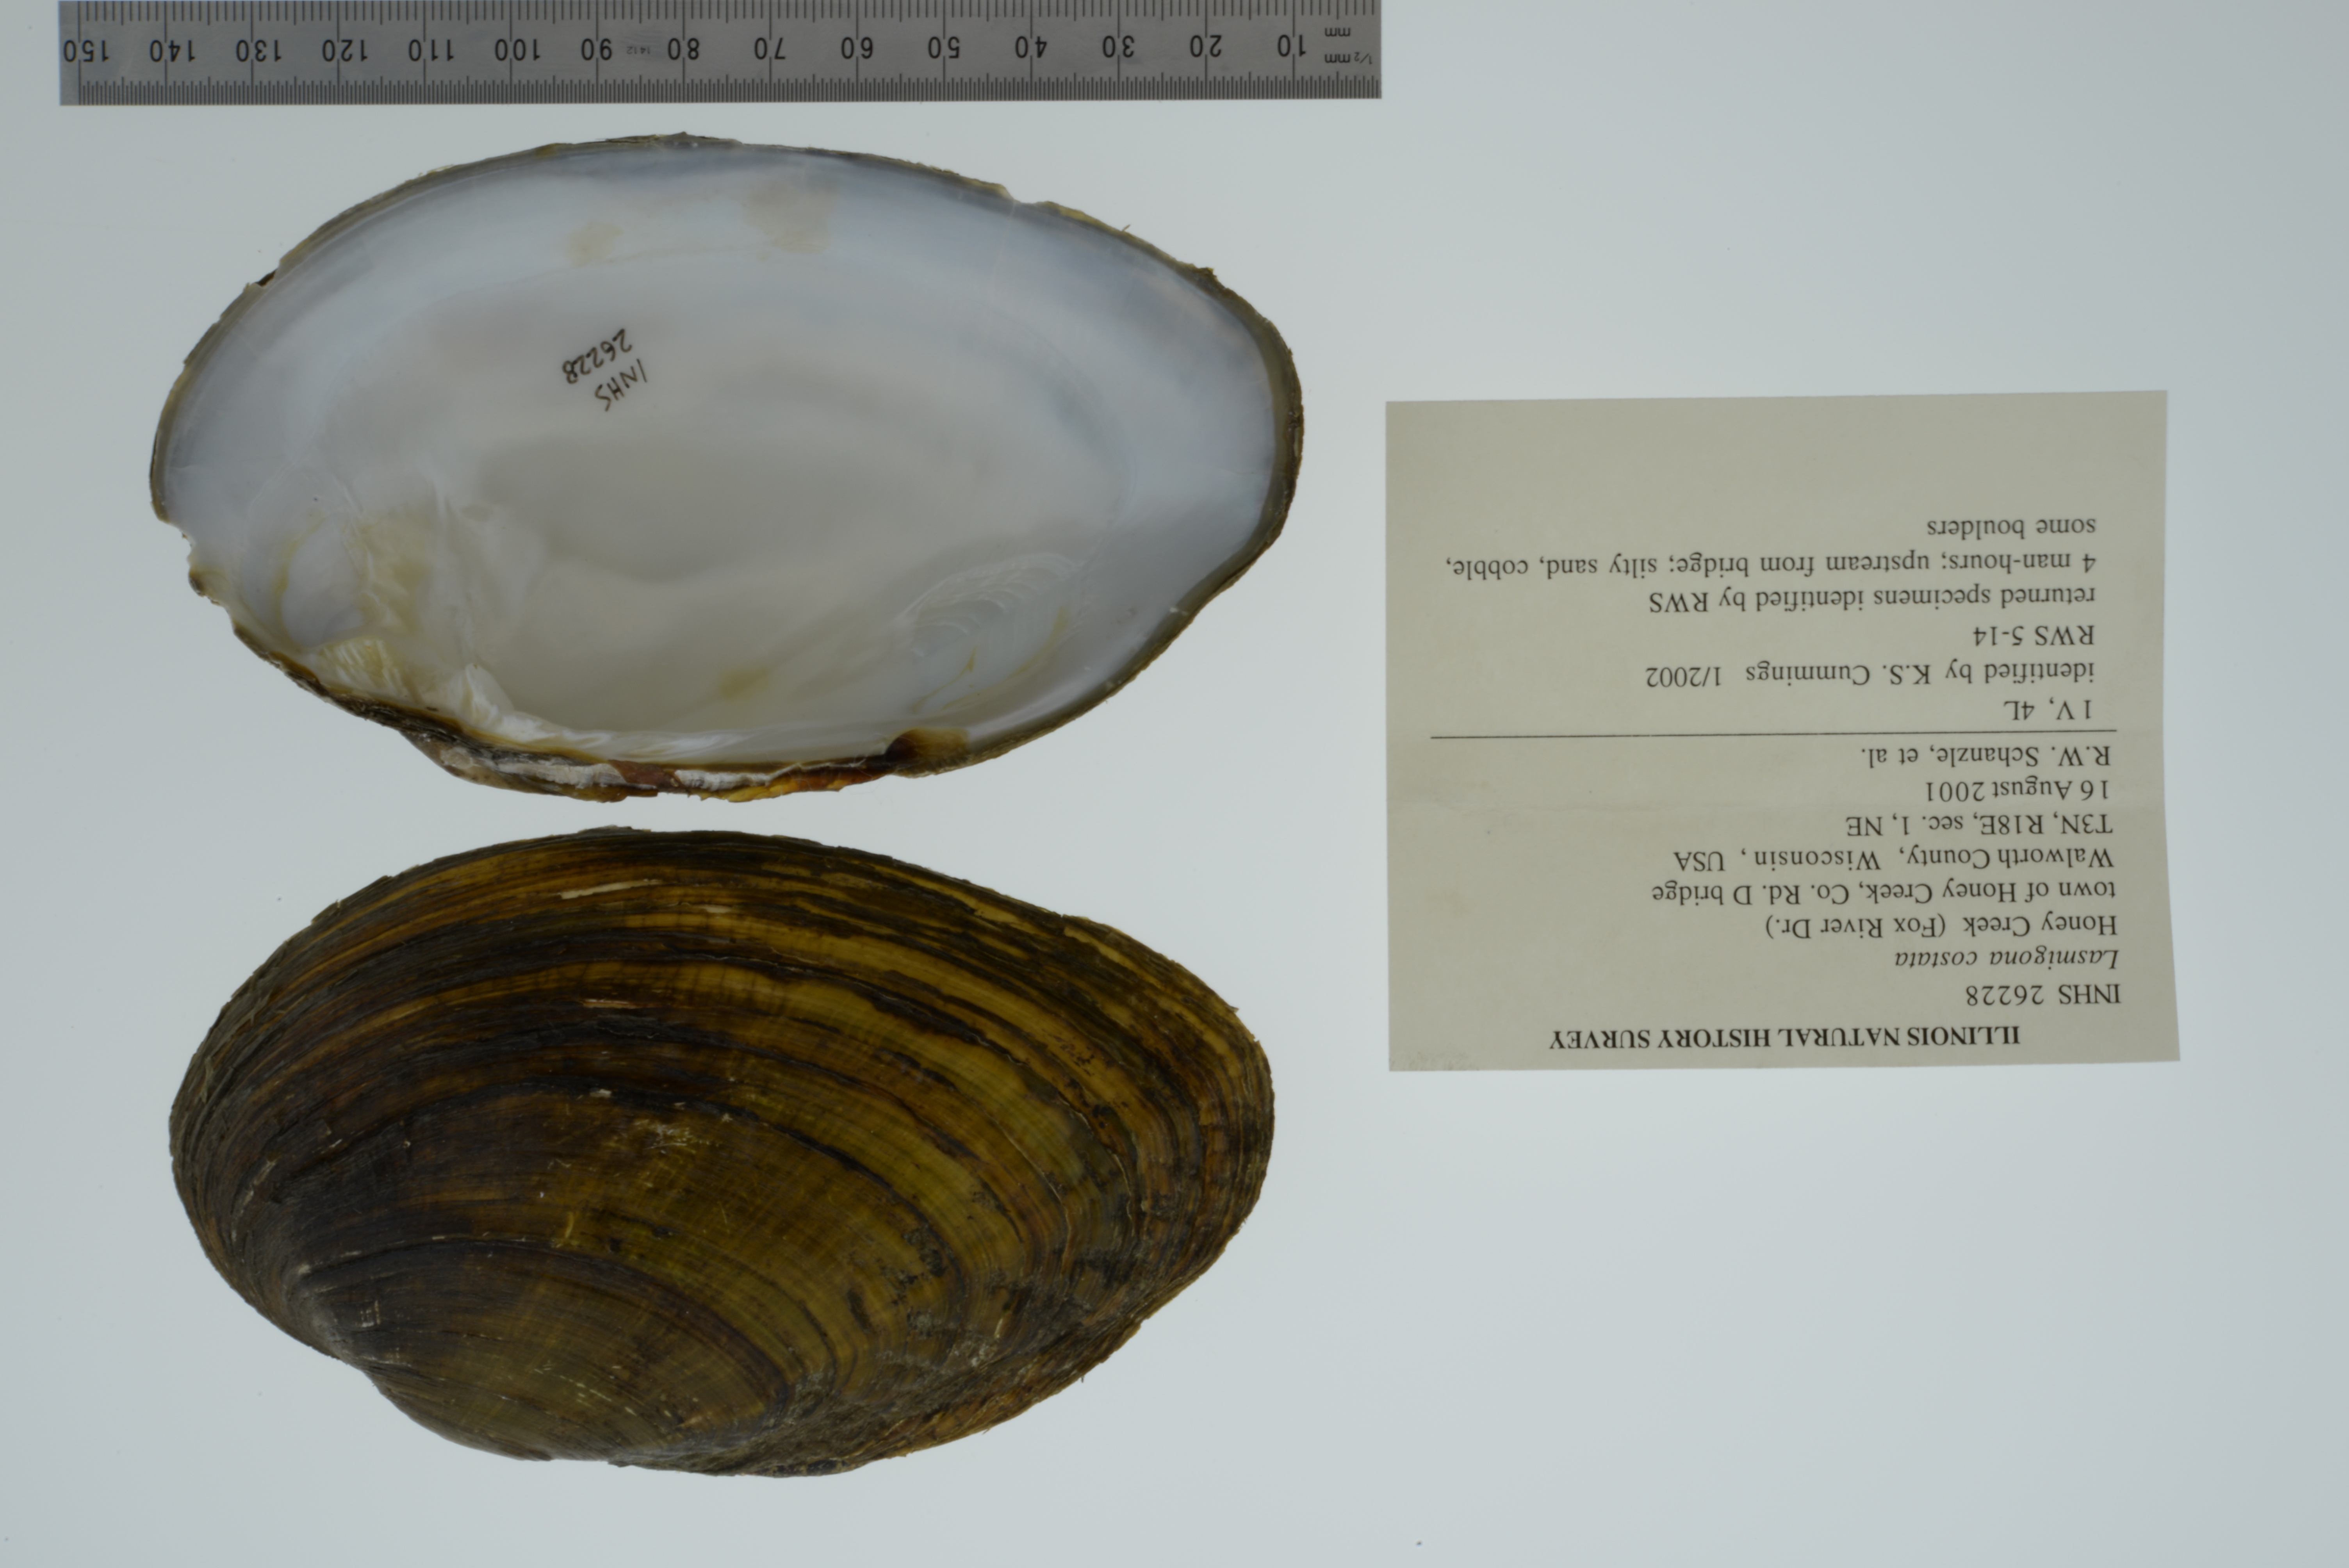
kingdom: Animalia
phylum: Mollusca
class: Bivalvia
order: Unionida
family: Unionidae
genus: Lasmigona
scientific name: Lasmigona costata
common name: Flutedshell
